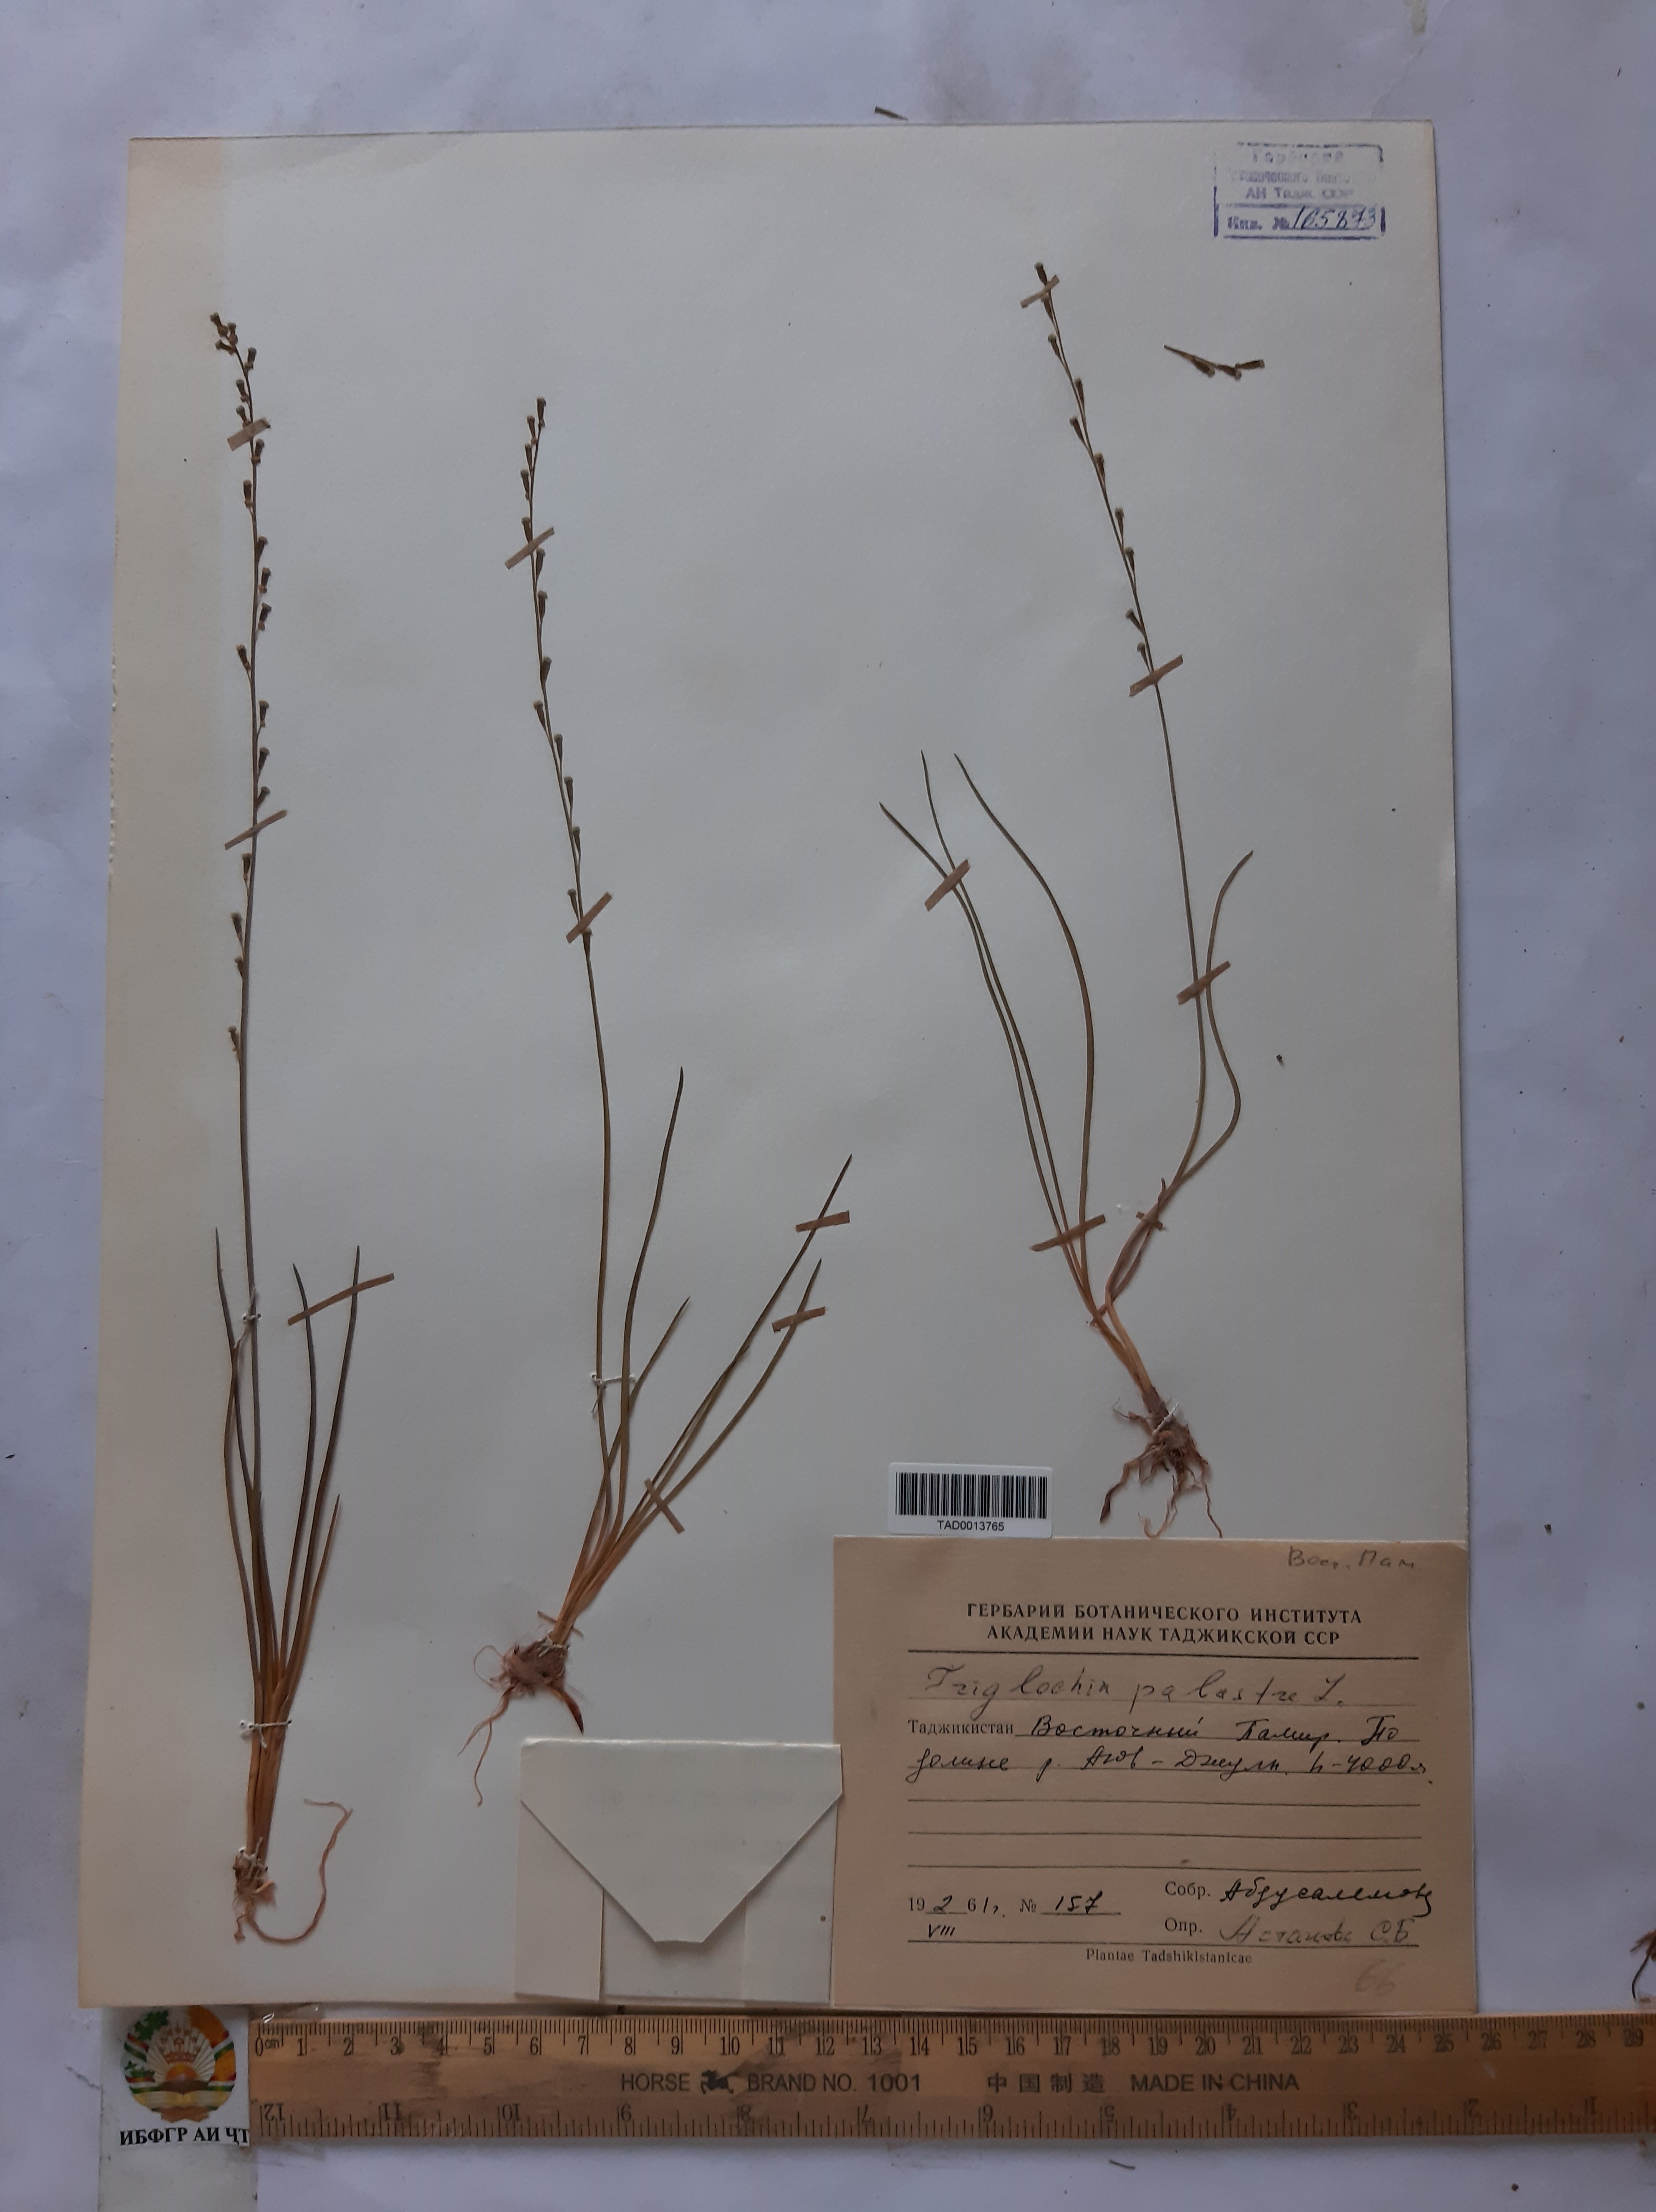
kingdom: Plantae
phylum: Tracheophyta
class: Liliopsida
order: Alismatales
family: Juncaginaceae
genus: Triglochin
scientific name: Triglochin palustris
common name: Marsh arrowgrass
